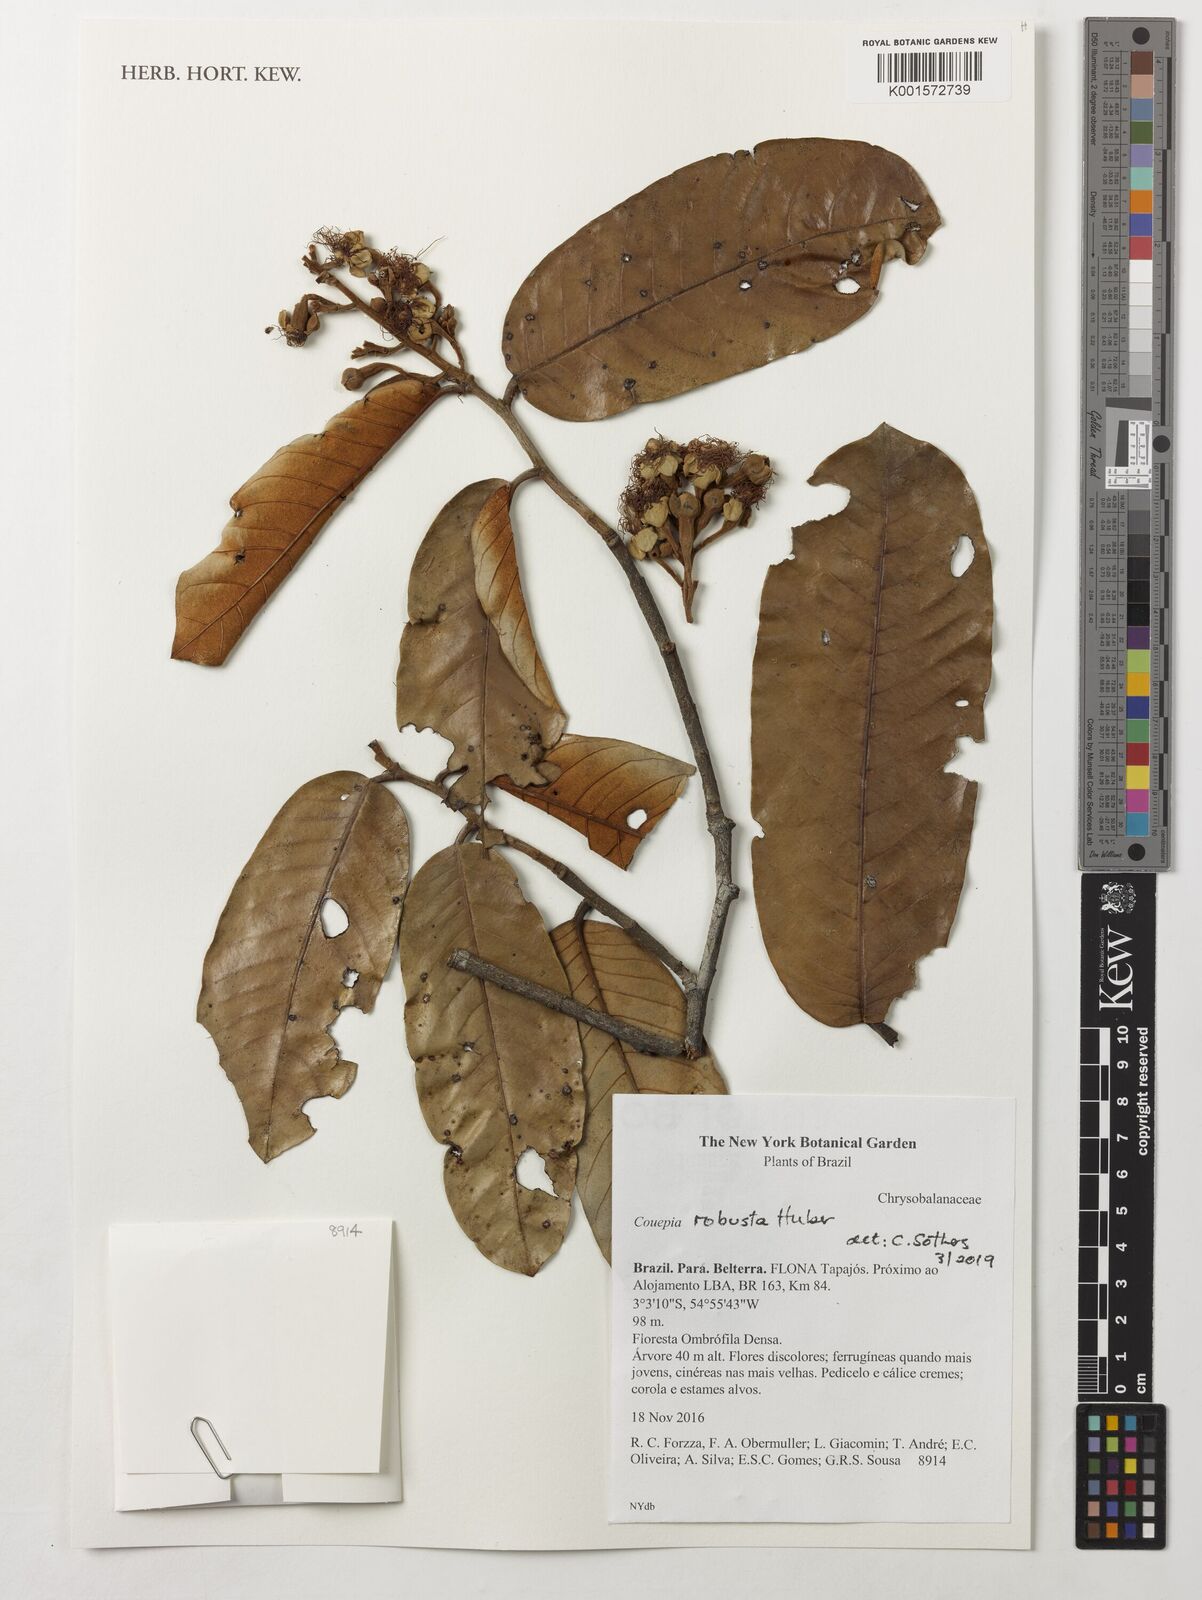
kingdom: Plantae
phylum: Tracheophyta
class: Magnoliopsida
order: Malpighiales
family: Chrysobalanaceae
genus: Couepia
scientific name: Couepia robusta
